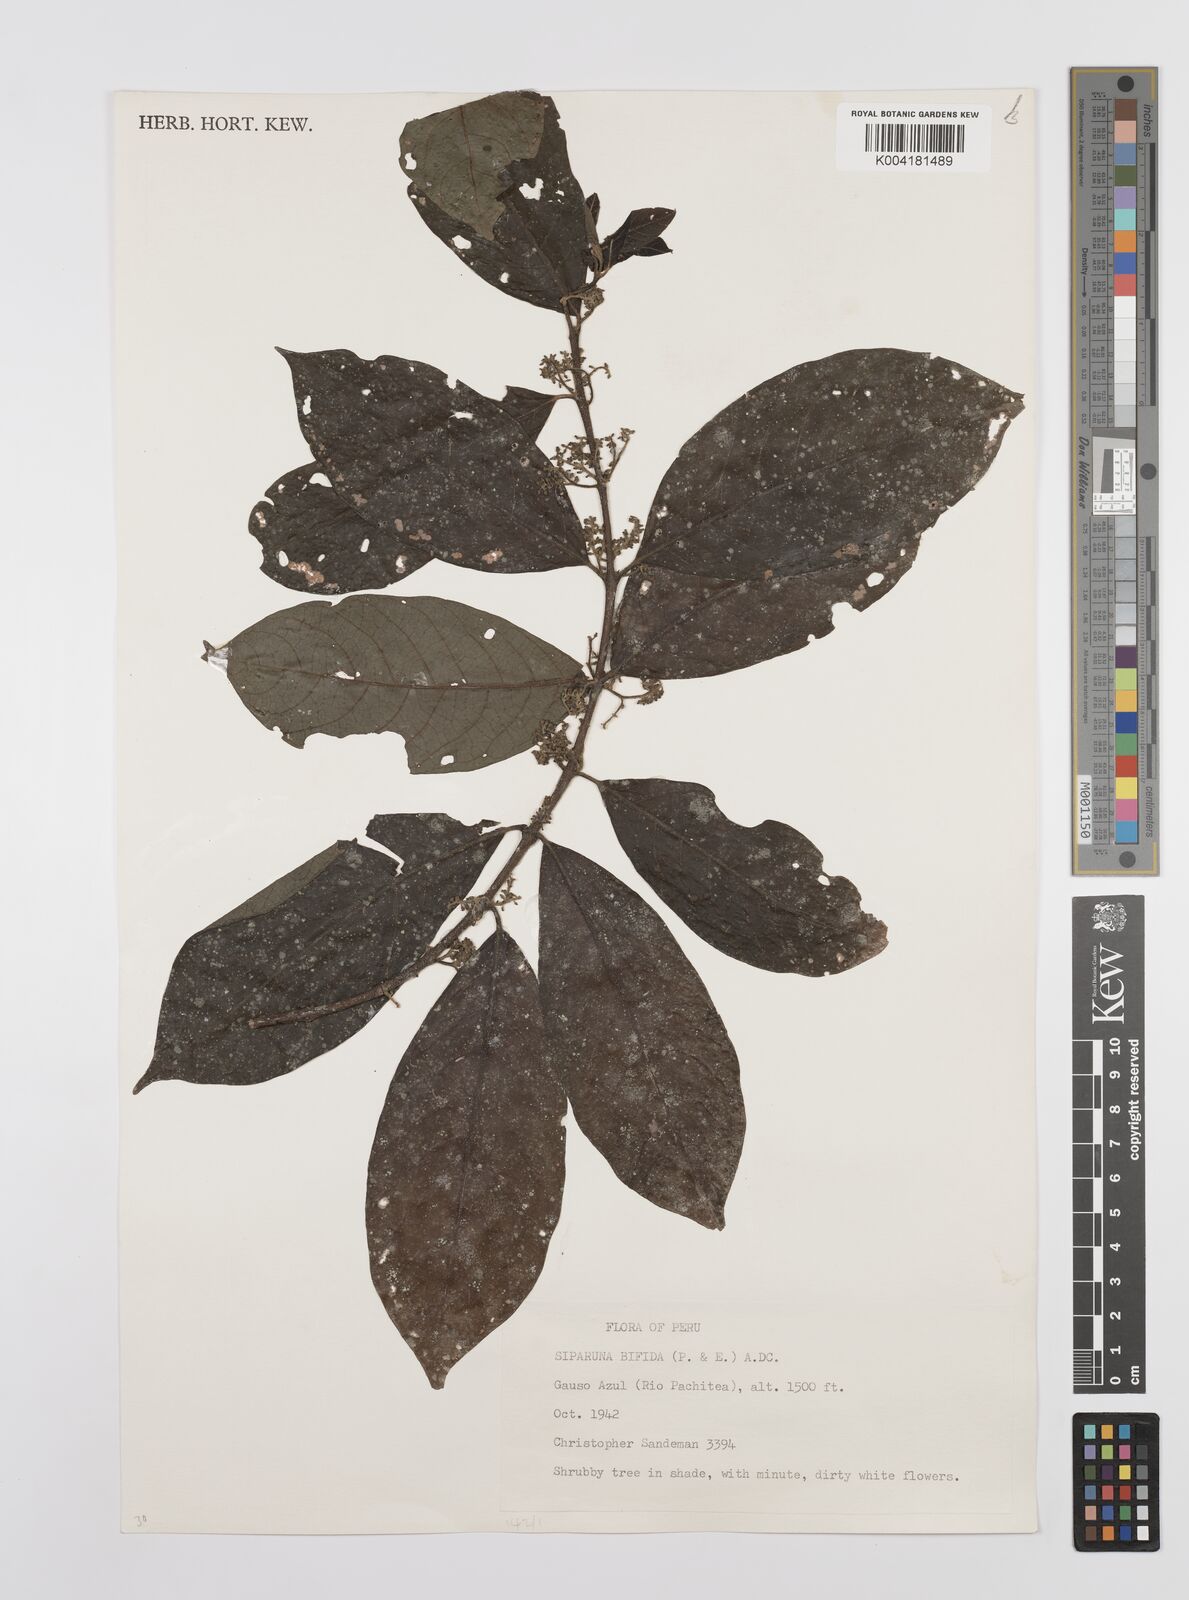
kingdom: Plantae
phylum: Tracheophyta
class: Magnoliopsida
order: Laurales
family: Siparunaceae
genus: Siparuna
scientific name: Siparuna bifida
